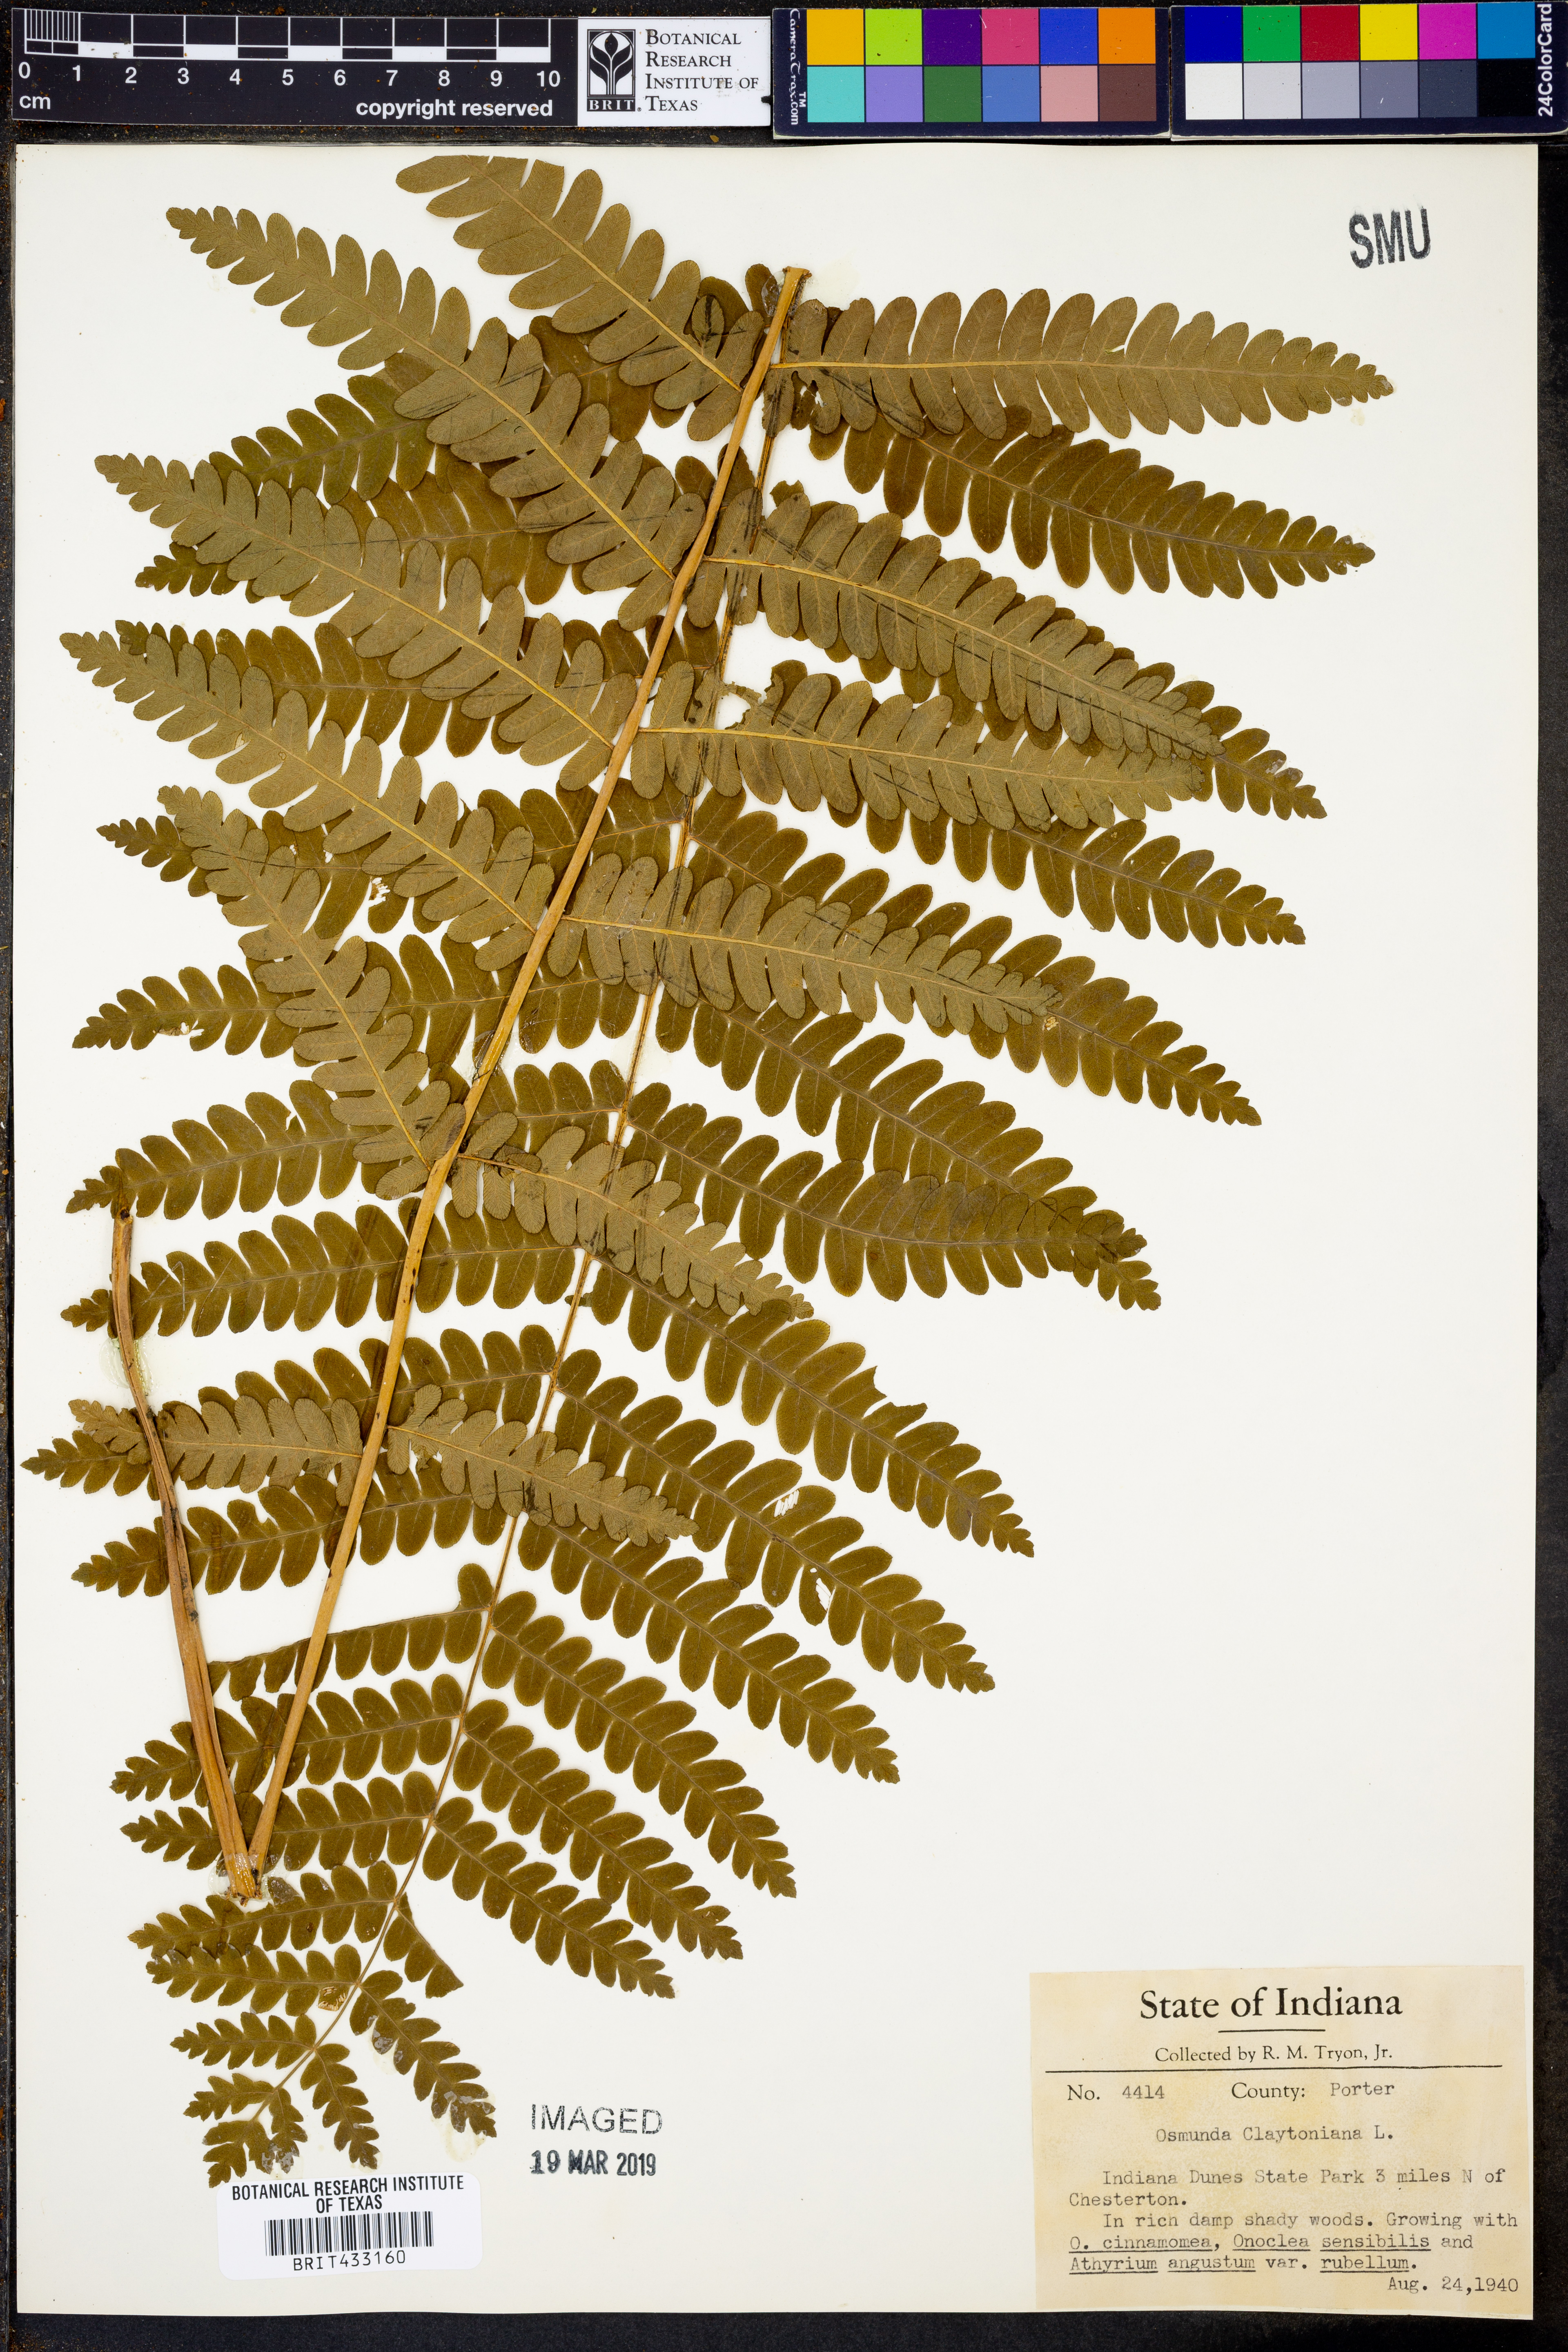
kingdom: Plantae
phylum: Tracheophyta
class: Polypodiopsida
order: Osmundales
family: Osmundaceae
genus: Claytosmunda
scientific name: Claytosmunda claytoniana
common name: Clayton's fern
